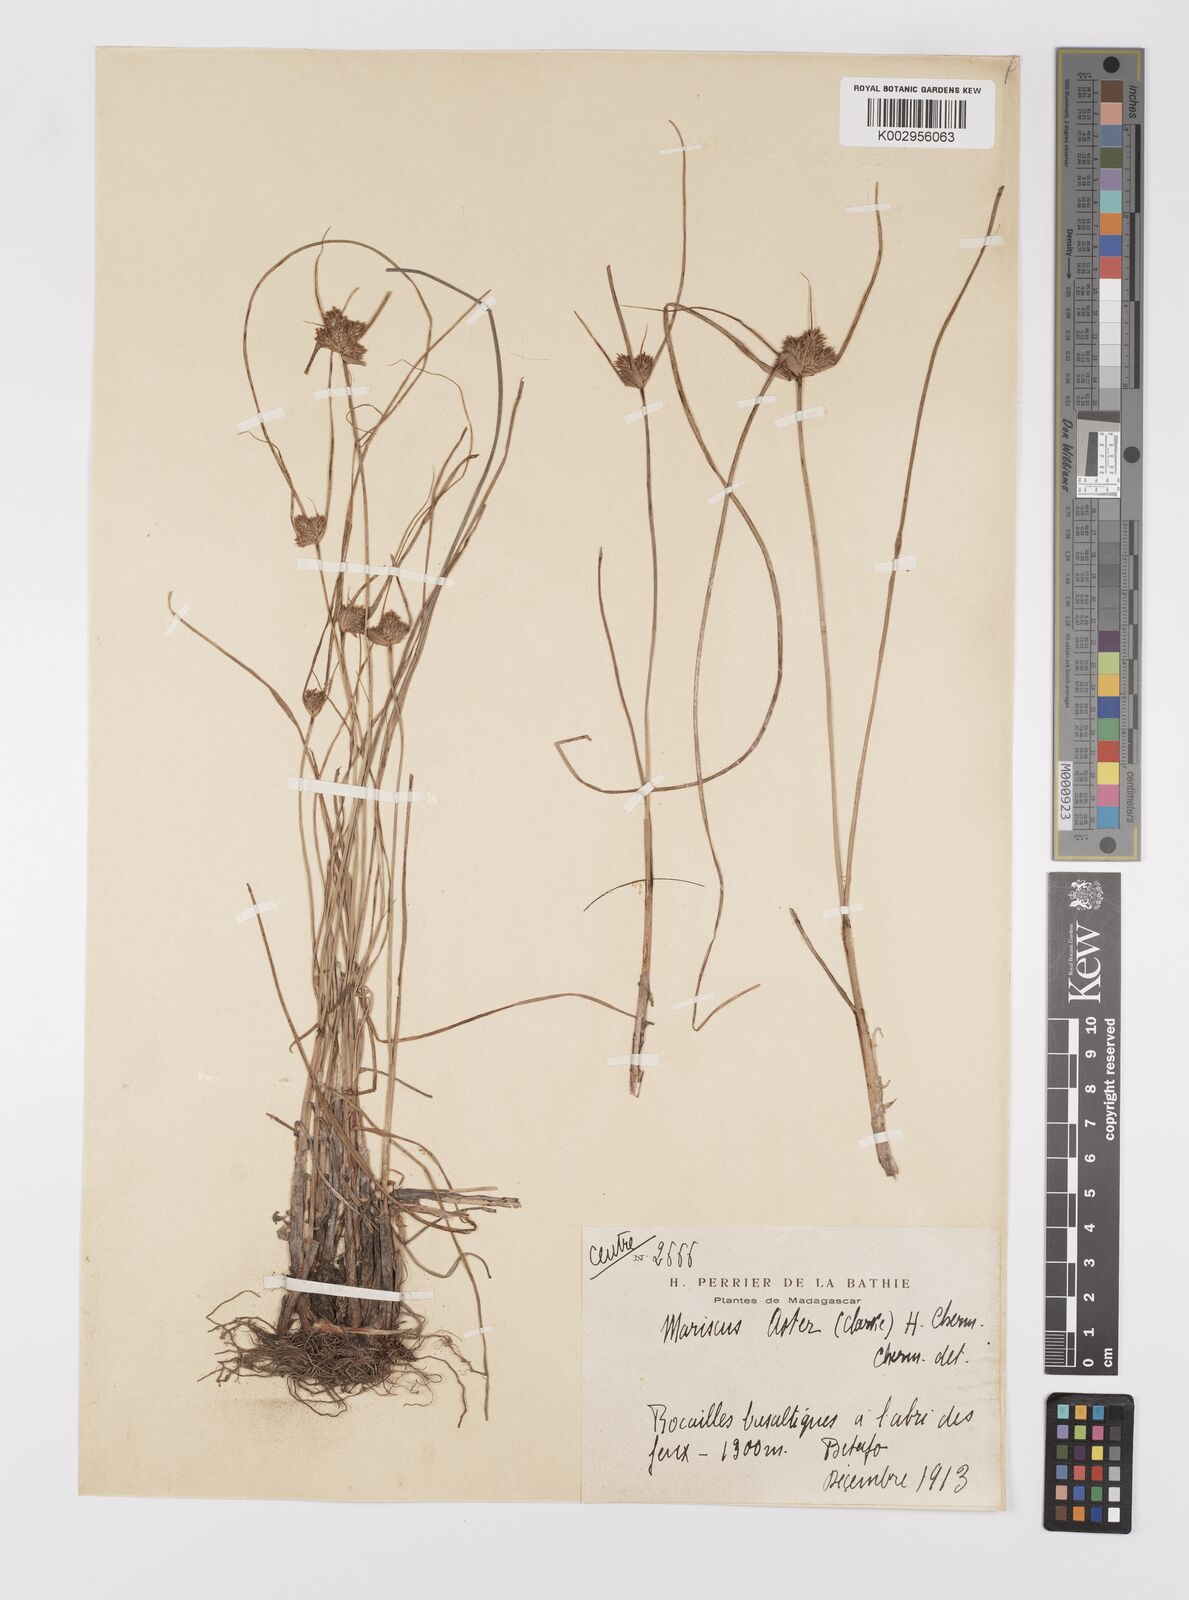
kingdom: Plantae
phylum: Tracheophyta
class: Liliopsida
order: Poales
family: Cyperaceae
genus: Cyperus
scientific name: Cyperus aster
